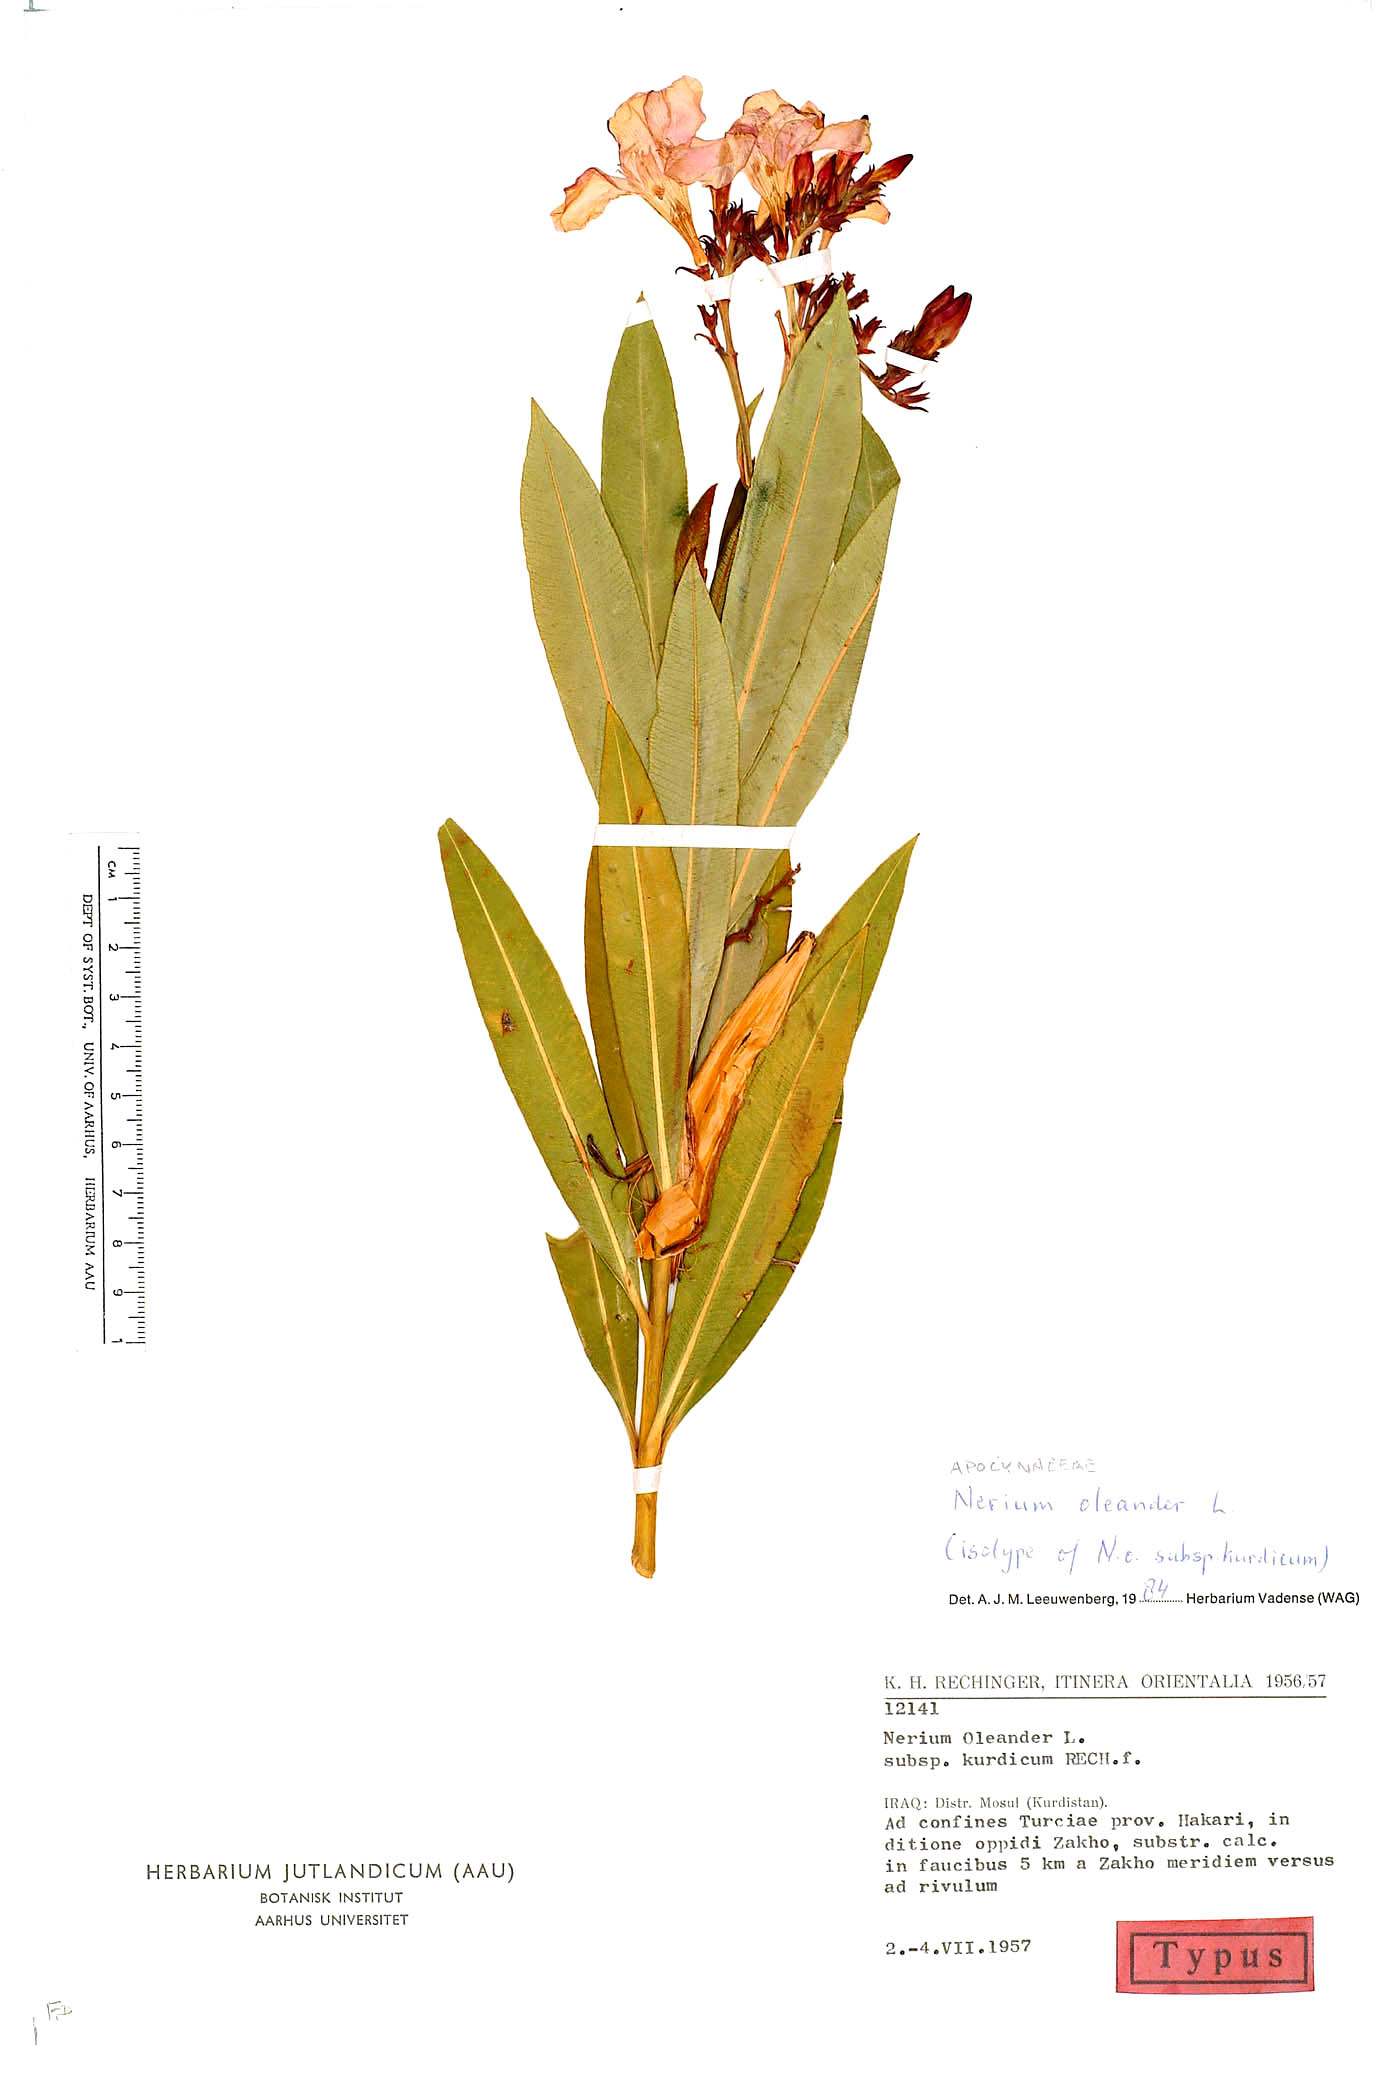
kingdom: Plantae
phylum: Tracheophyta
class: Magnoliopsida
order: Gentianales
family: Apocynaceae
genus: Nerium
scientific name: Nerium oleander
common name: Oleander
